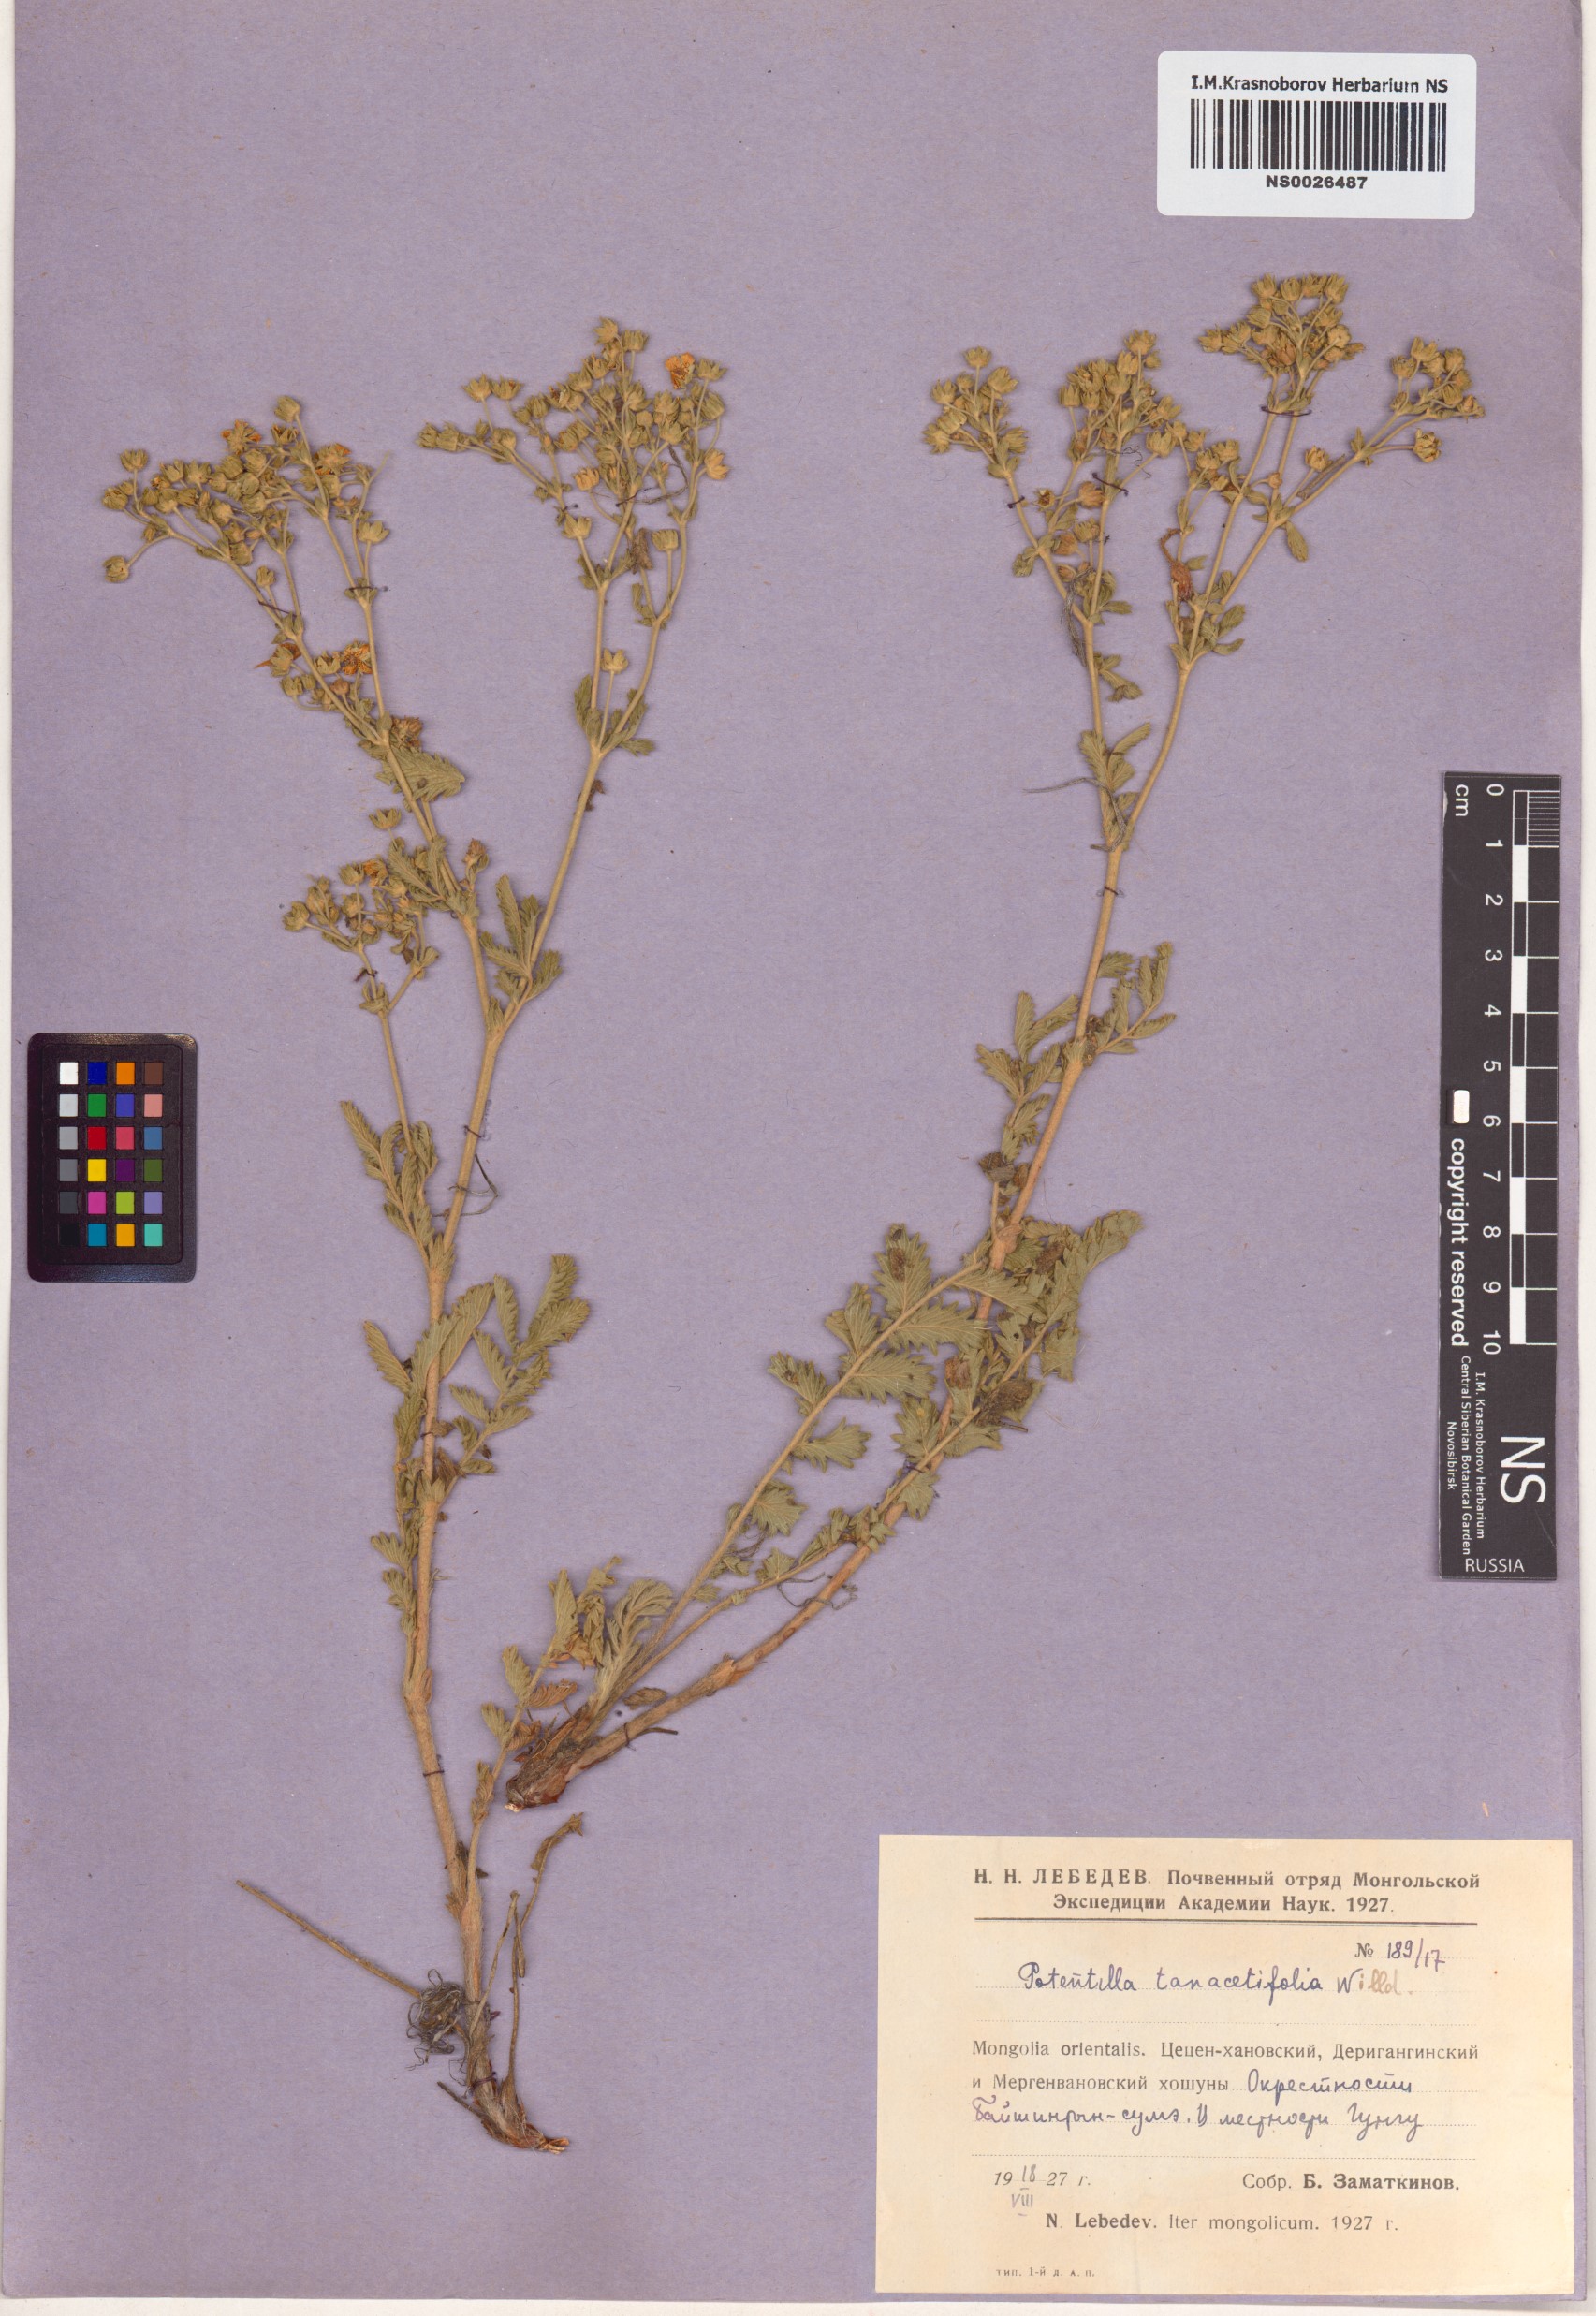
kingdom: Plantae
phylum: Tracheophyta
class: Magnoliopsida
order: Rosales
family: Rosaceae
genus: Potentilla
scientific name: Potentilla tanacetifolia
